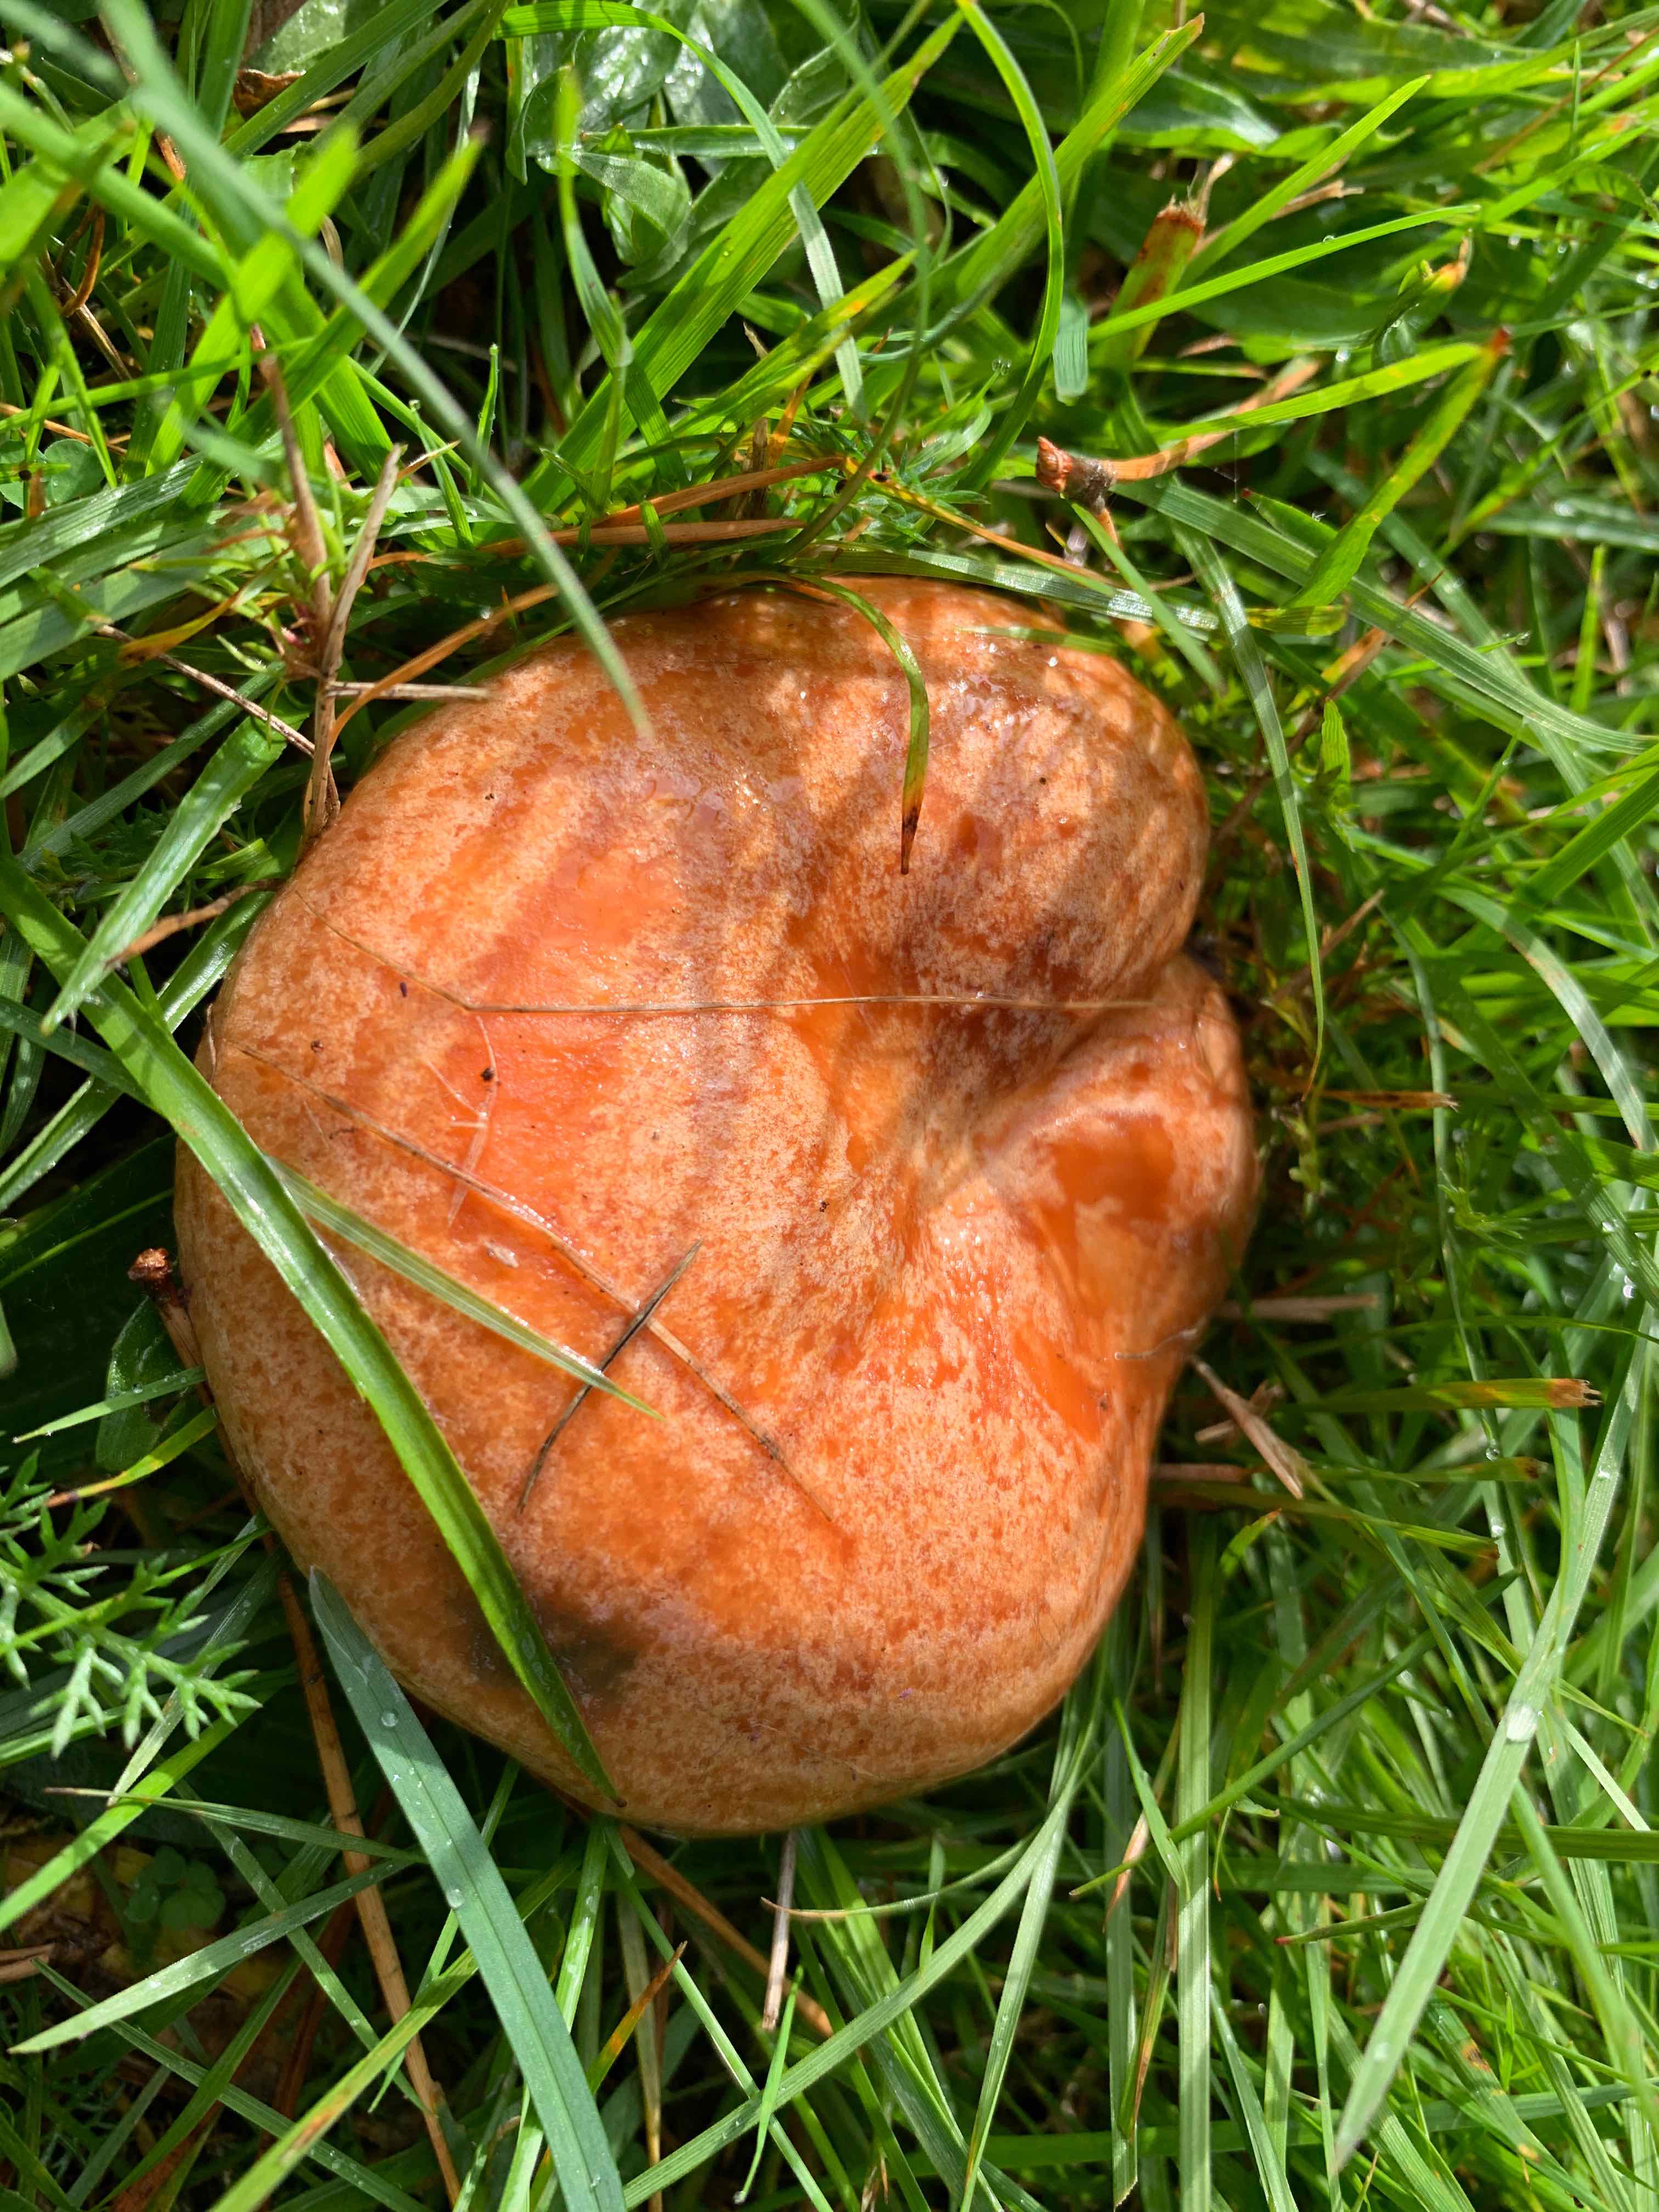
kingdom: Fungi
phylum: Basidiomycota
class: Agaricomycetes
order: Russulales
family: Russulaceae
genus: Lactarius
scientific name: Lactarius deliciosus
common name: velsmagende mælkehat
